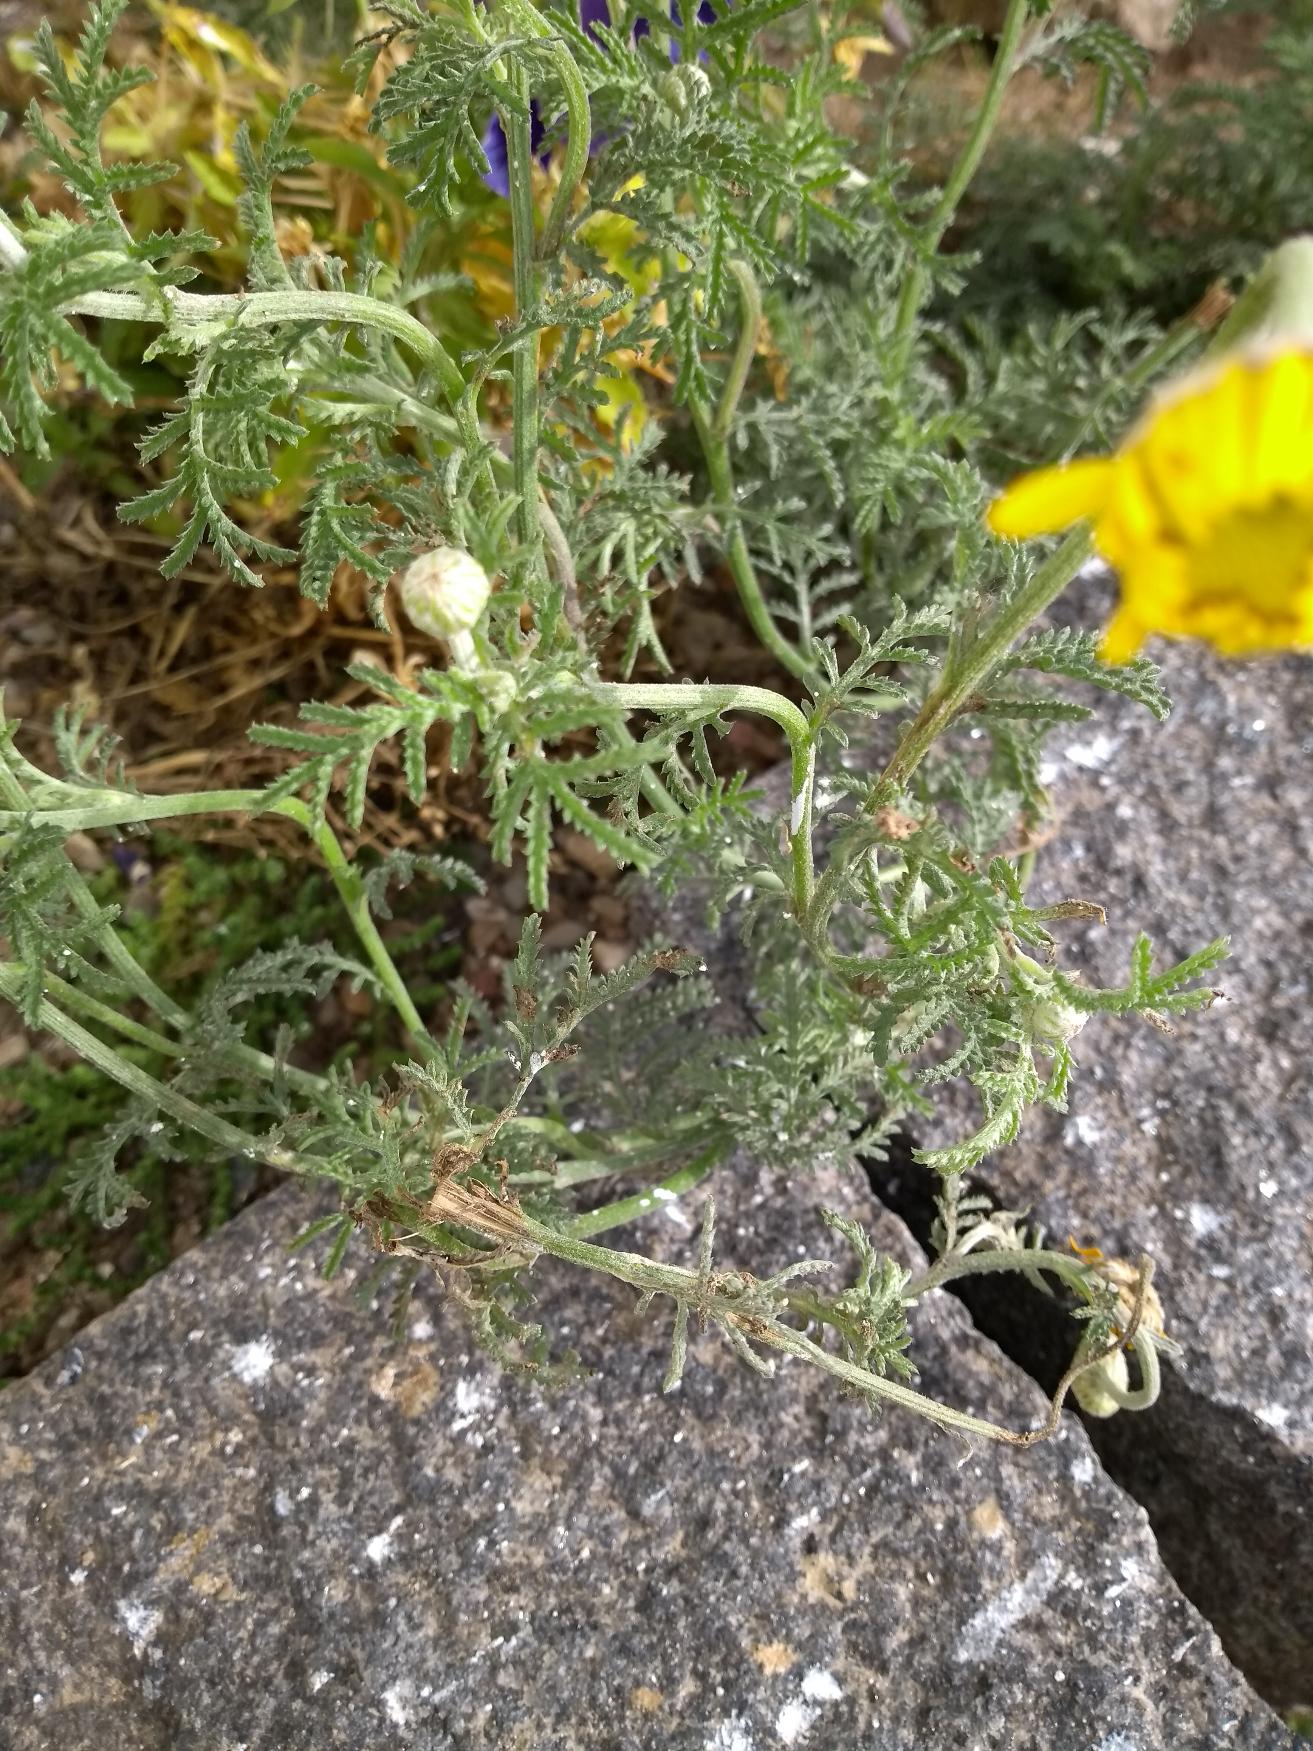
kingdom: Plantae
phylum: Tracheophyta
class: Magnoliopsida
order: Asterales
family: Asteraceae
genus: Cota
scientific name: Cota tinctoria
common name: Farve-gåseurt
